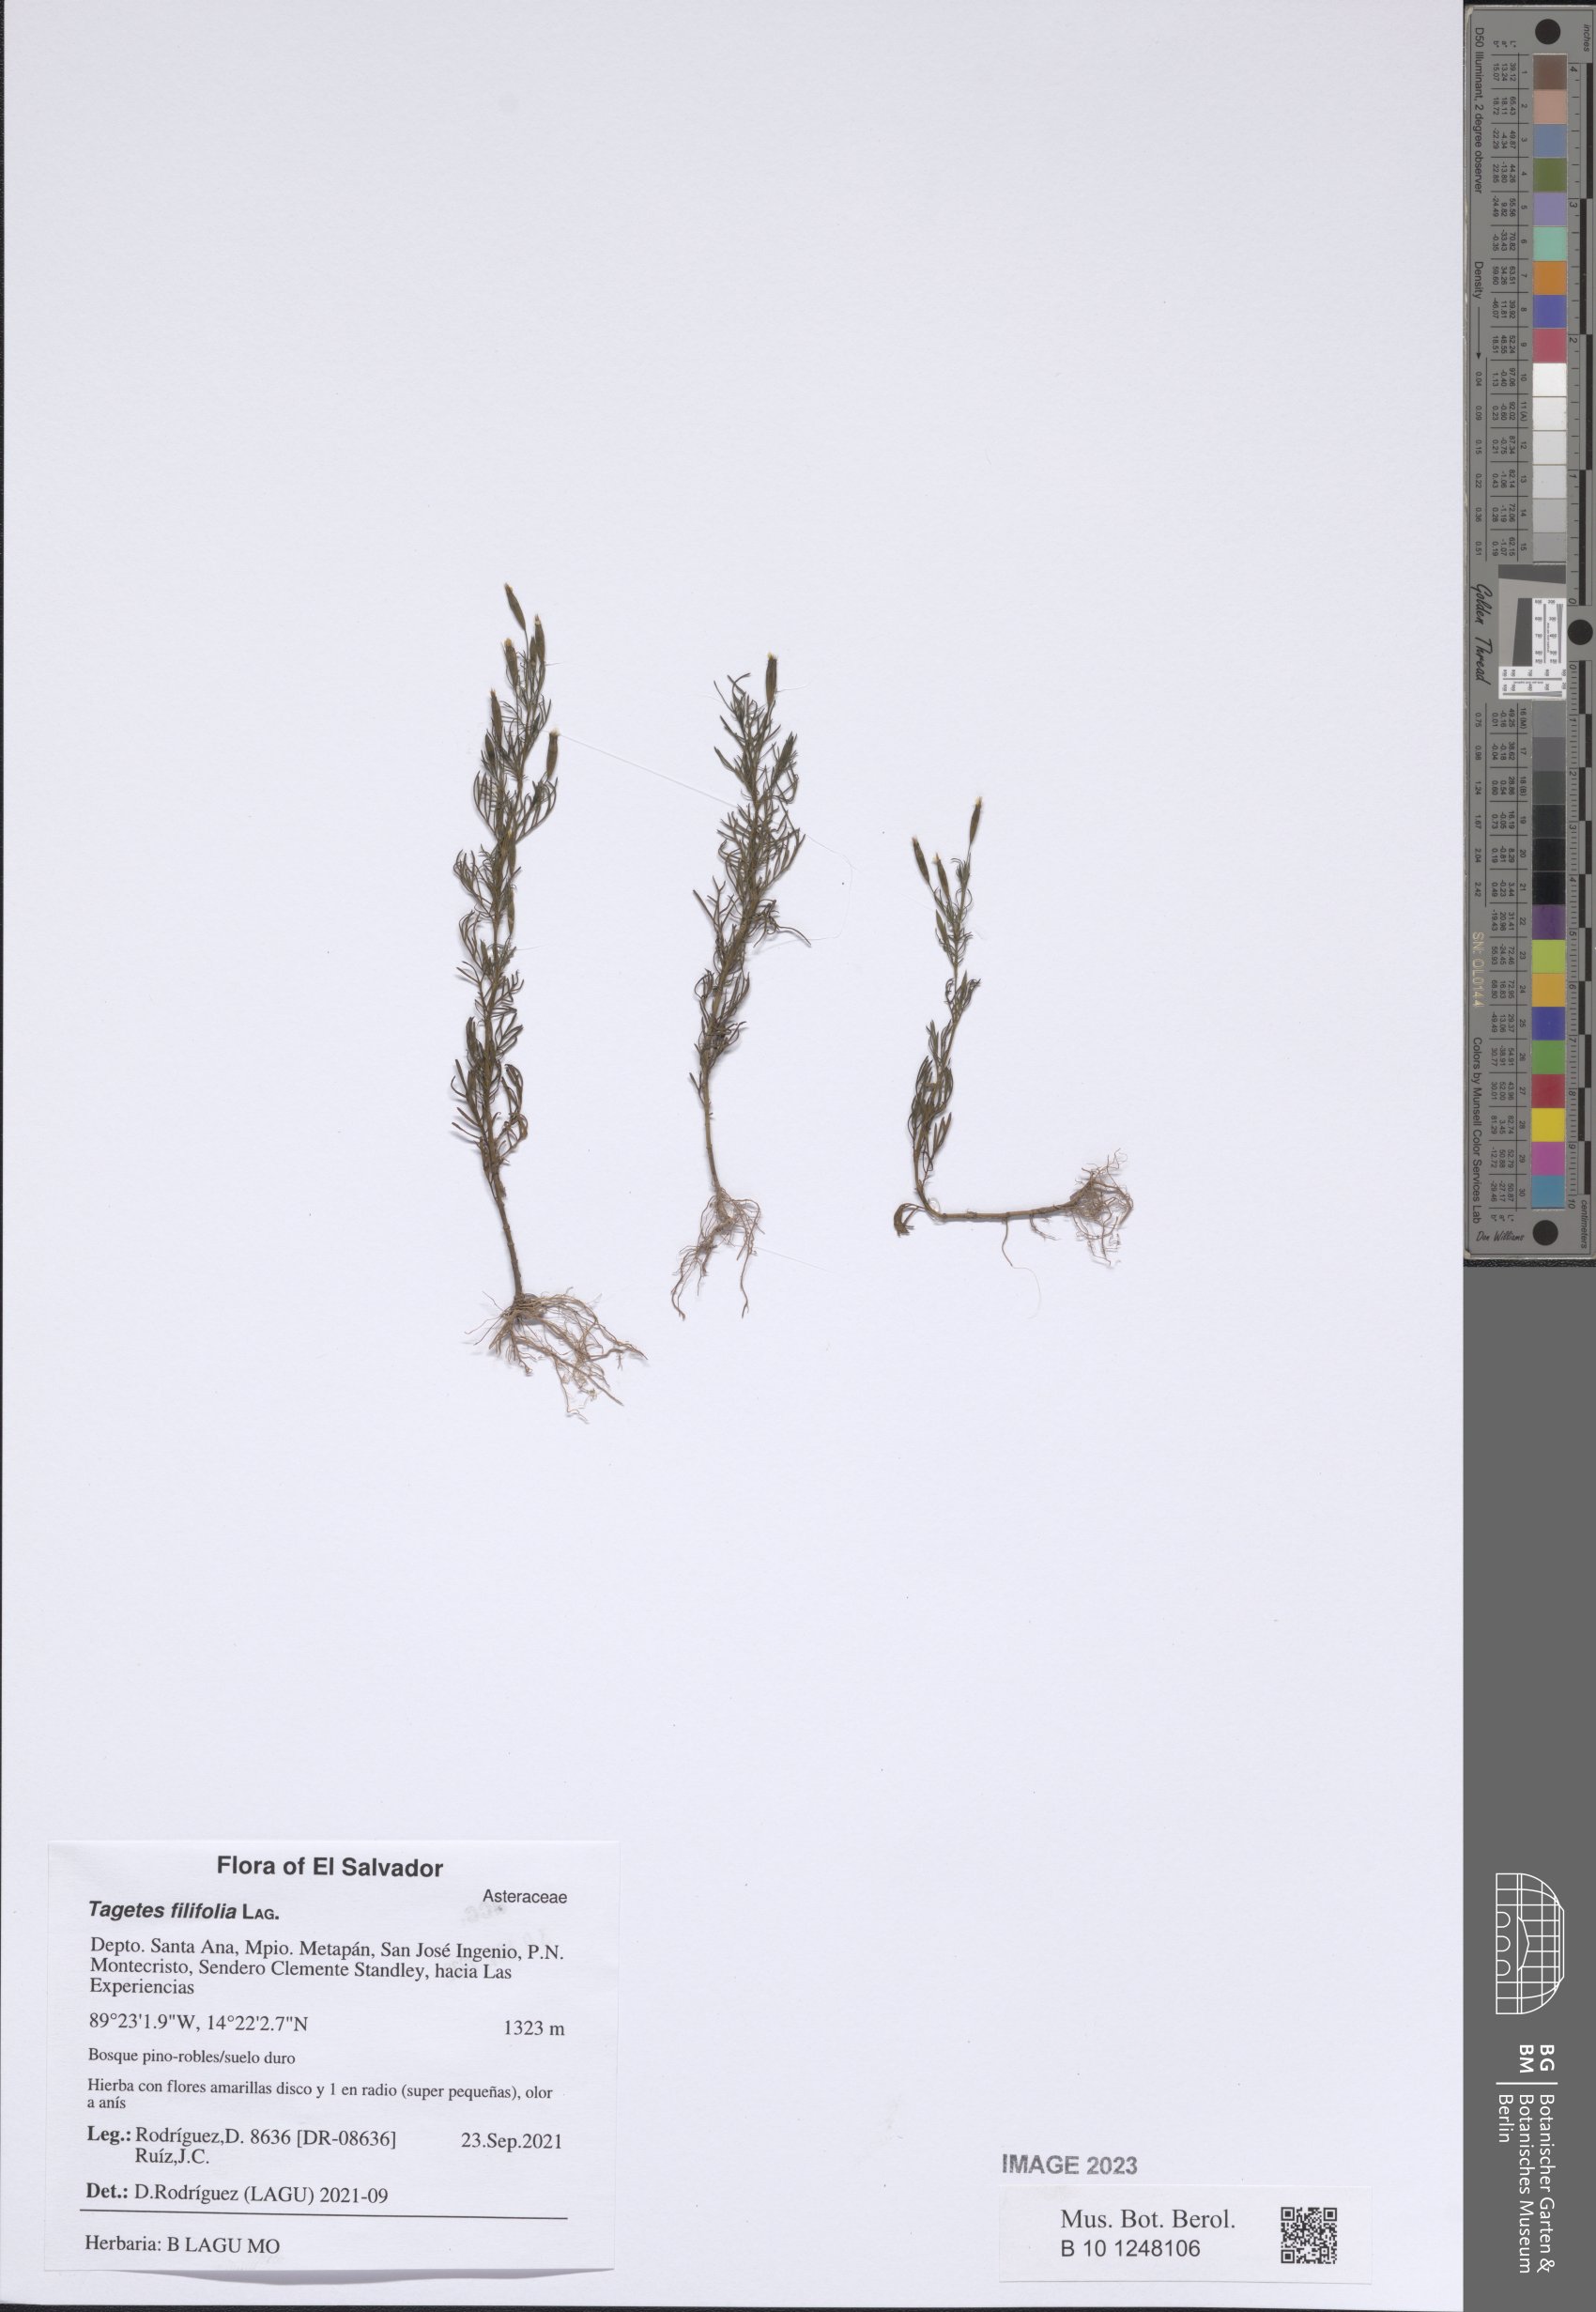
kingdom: Plantae
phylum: Tracheophyta
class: Magnoliopsida
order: Asterales
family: Asteraceae
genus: Tagetes
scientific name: Tagetes filifolia
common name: Lesser marigold
